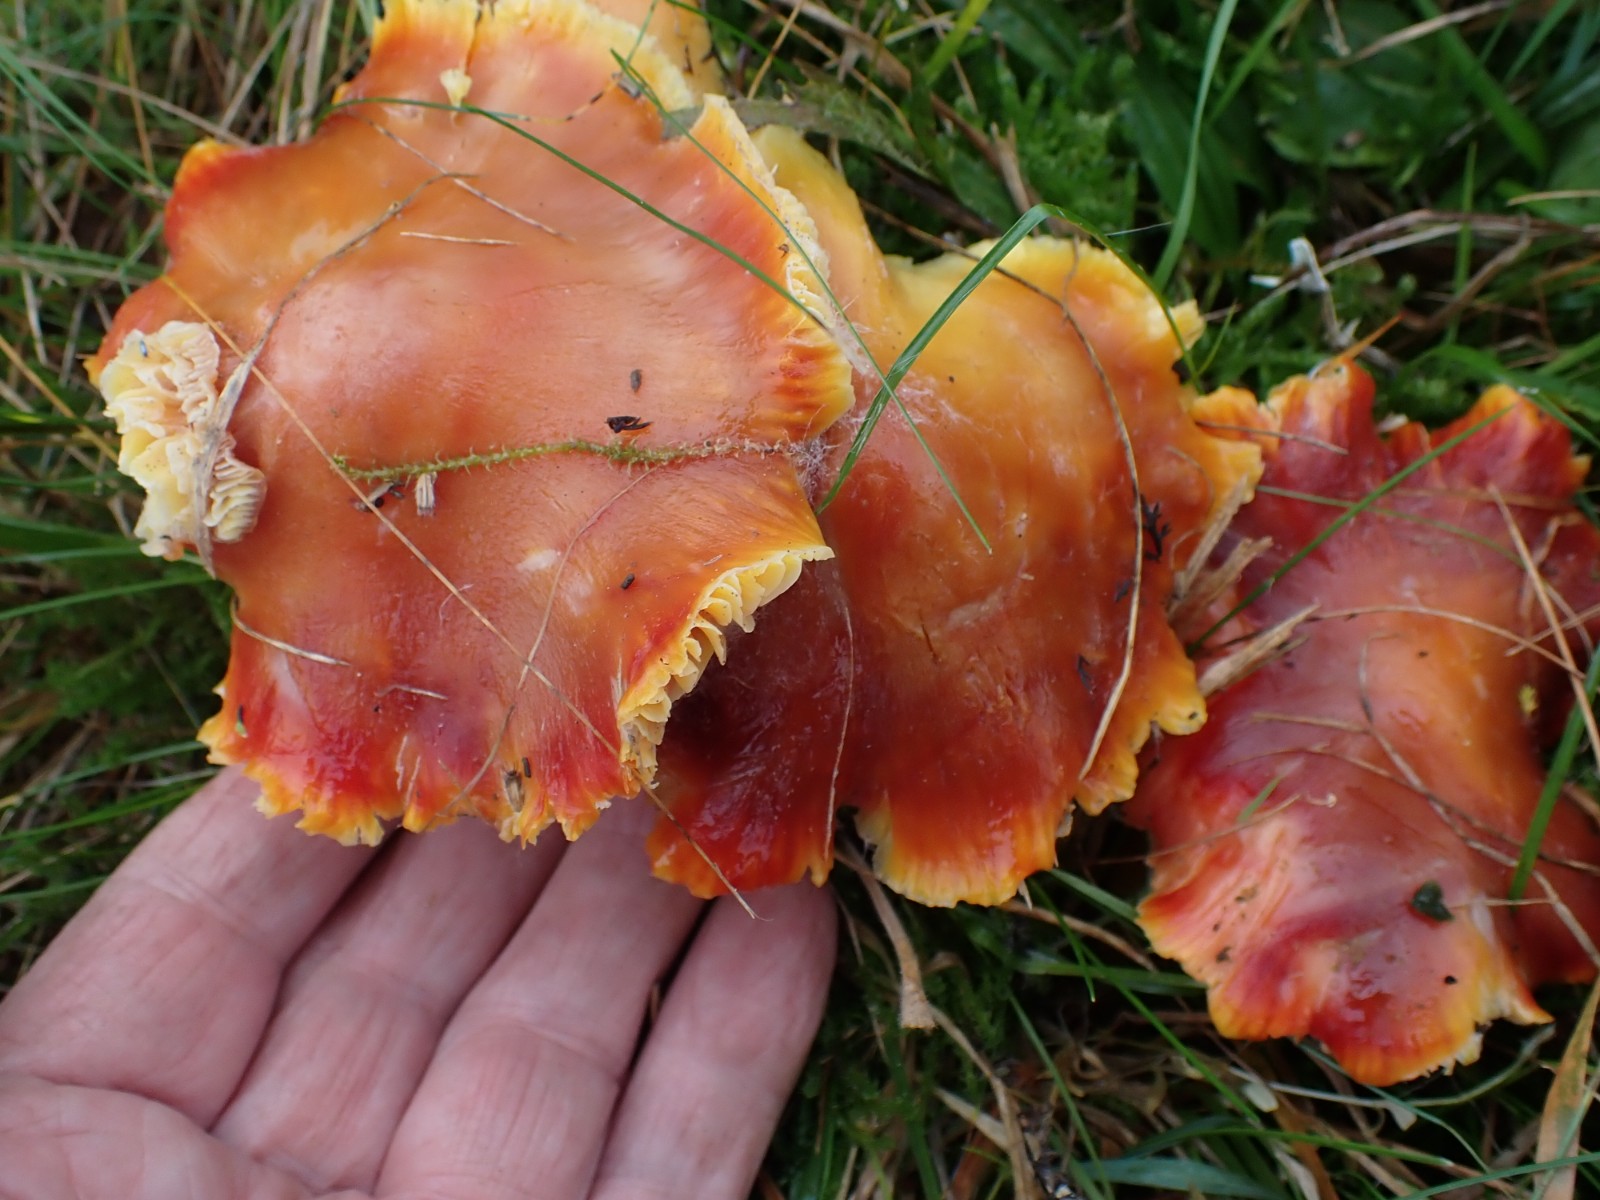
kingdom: Fungi
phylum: Basidiomycota
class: Agaricomycetes
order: Agaricales
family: Hygrophoraceae
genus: Hygrocybe
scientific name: Hygrocybe punicea
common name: skarlagen-vokshat
